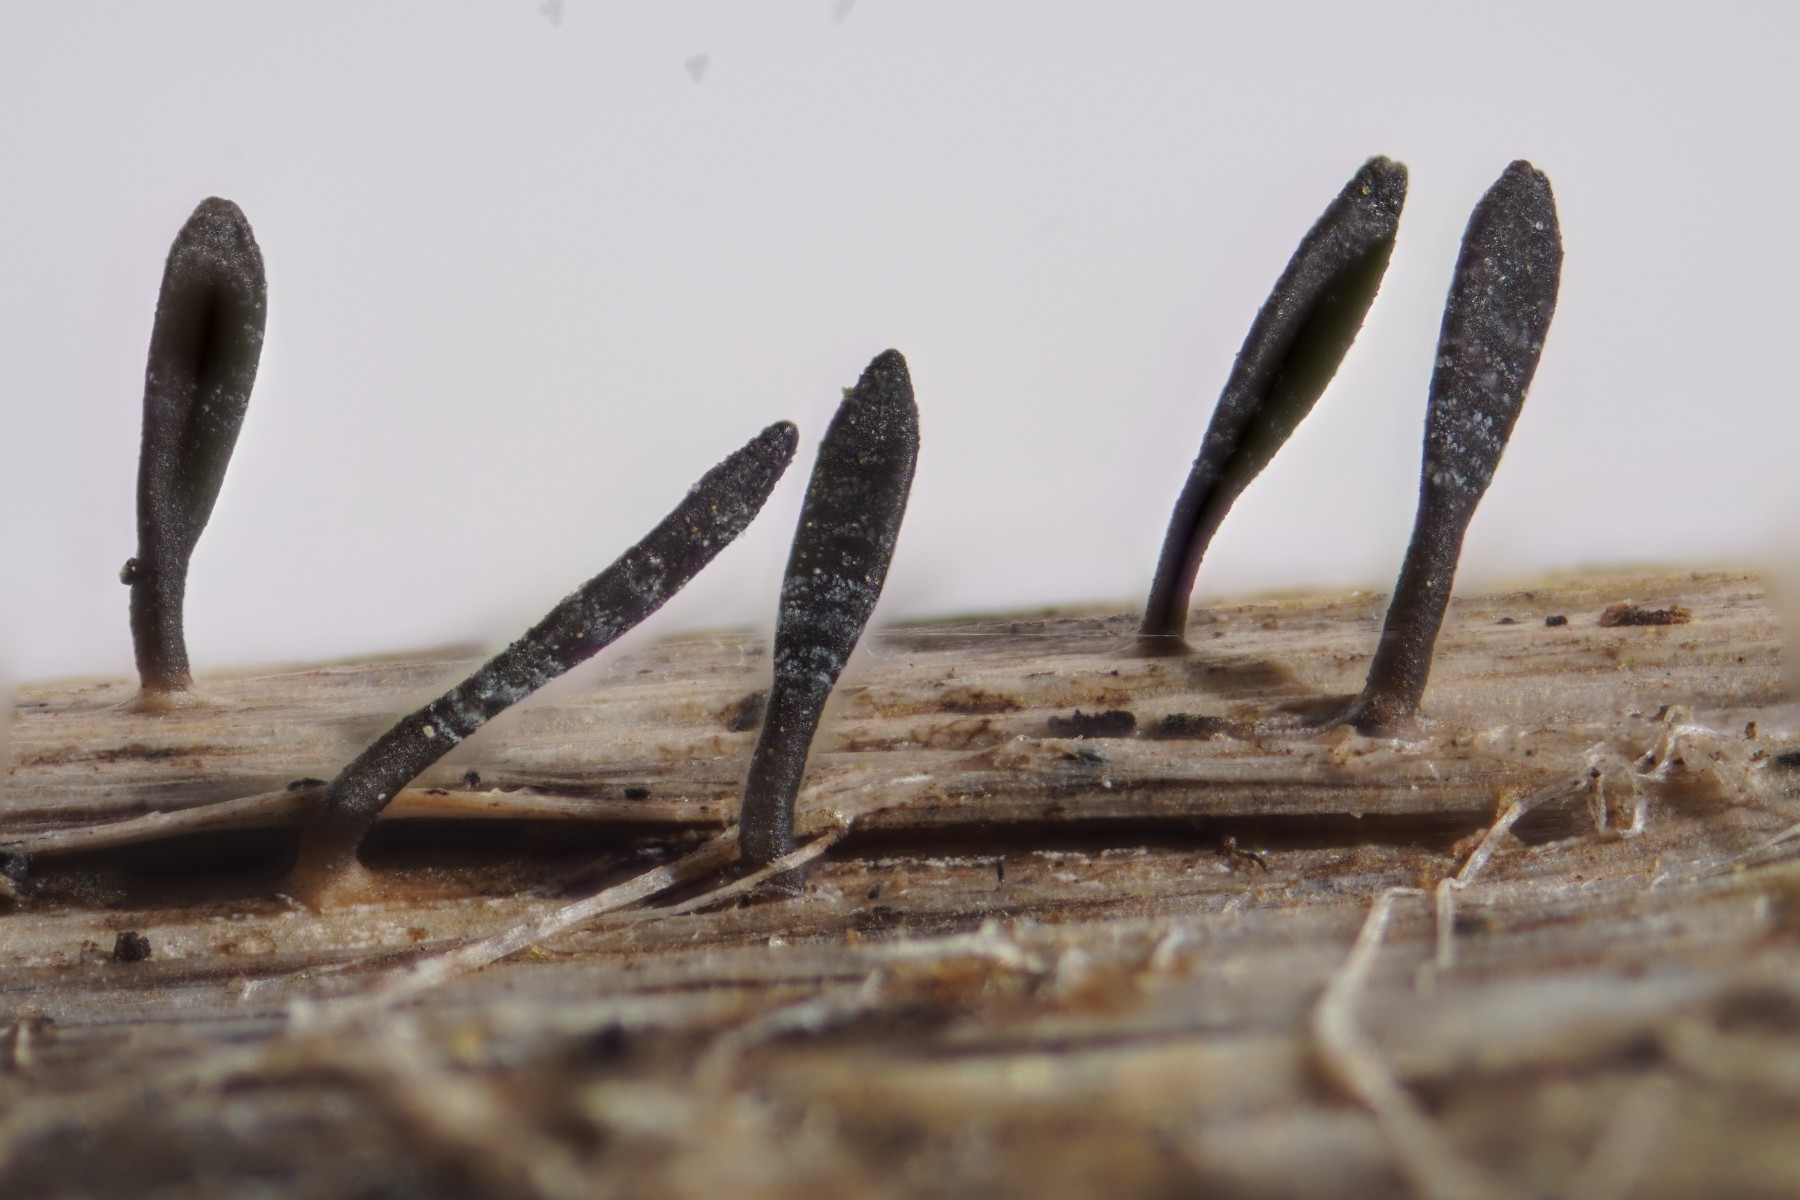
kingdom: Fungi
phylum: Ascomycota
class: Dothideomycetes
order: Acrospermales
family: Acrospermaceae
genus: Acrospermum
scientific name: Acrospermum compressum
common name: nælde-stængeltunge
